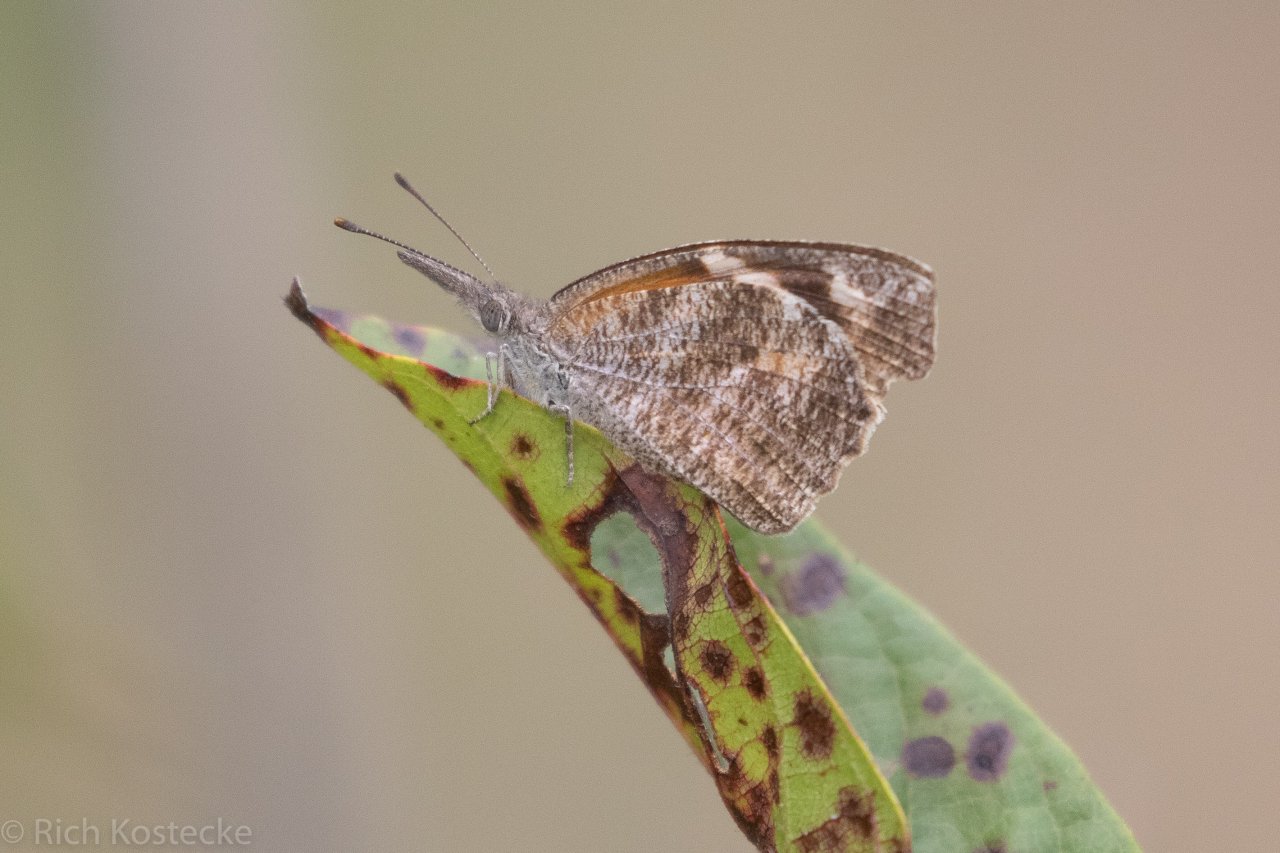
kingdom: Animalia
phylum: Arthropoda
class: Insecta
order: Lepidoptera
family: Nymphalidae
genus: Libytheana
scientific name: Libytheana carinenta
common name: American Snout
